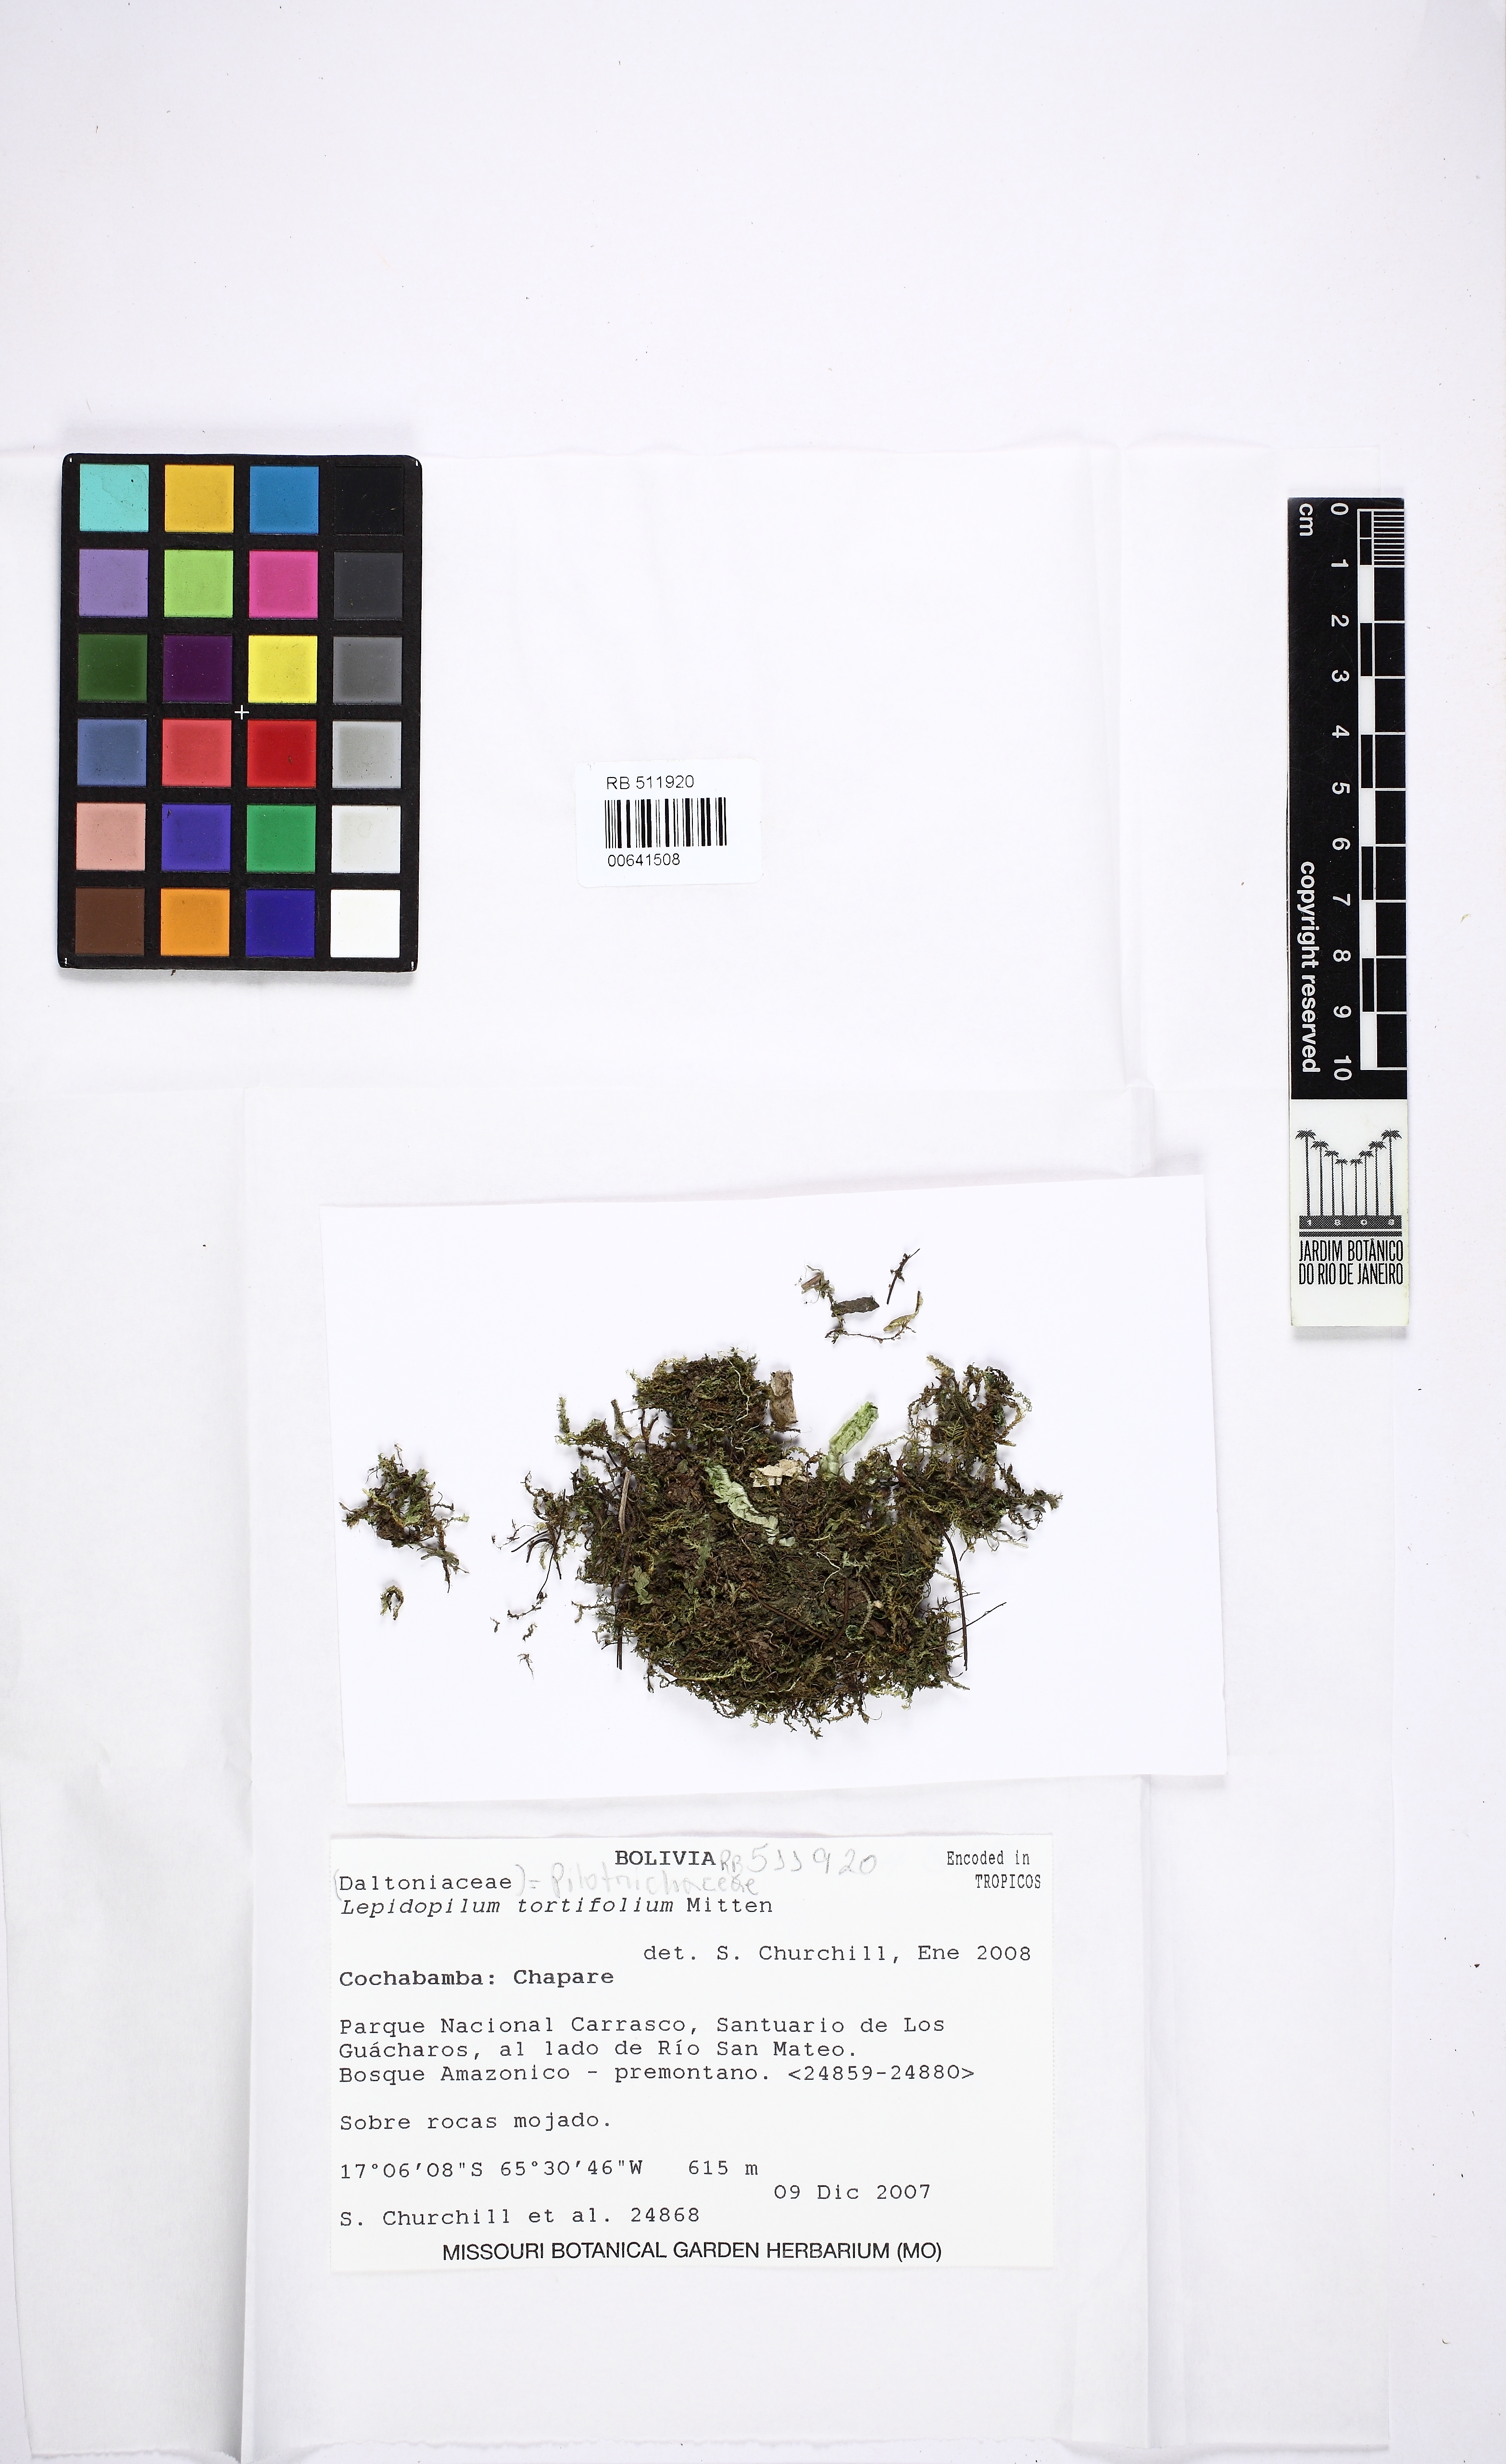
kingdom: Plantae
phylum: Bryophyta
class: Bryopsida
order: Hookeriales
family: Pilotrichaceae
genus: Lepidopilum
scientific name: Lepidopilum tortifolium
